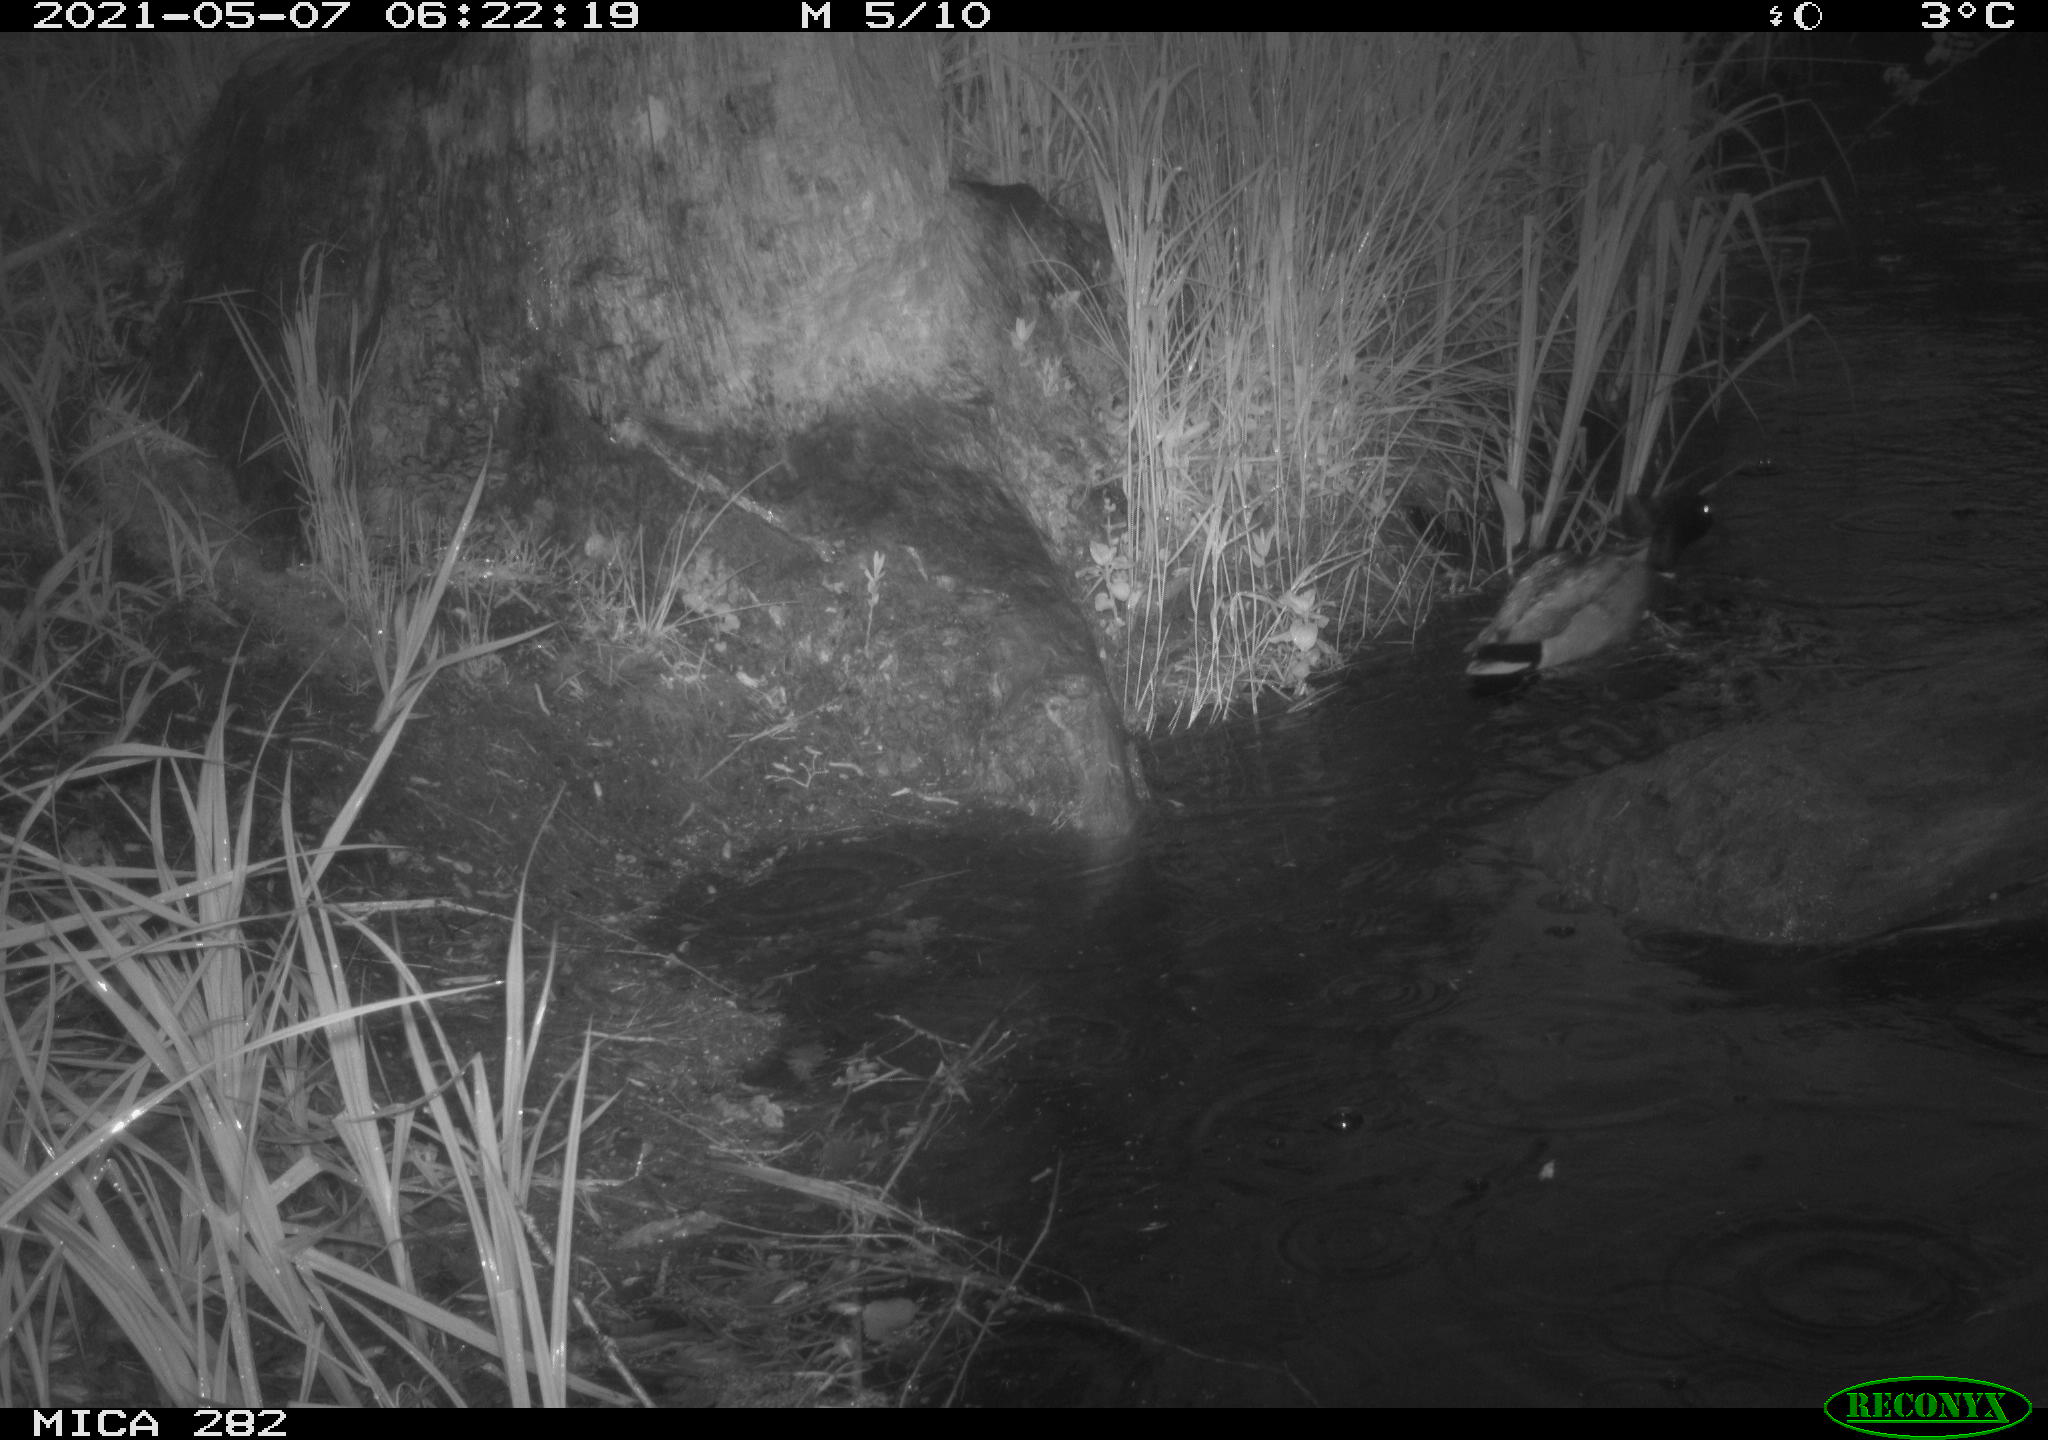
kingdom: Animalia
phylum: Chordata
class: Aves
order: Anseriformes
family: Anatidae
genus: Anas
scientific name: Anas platyrhynchos
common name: Mallard
